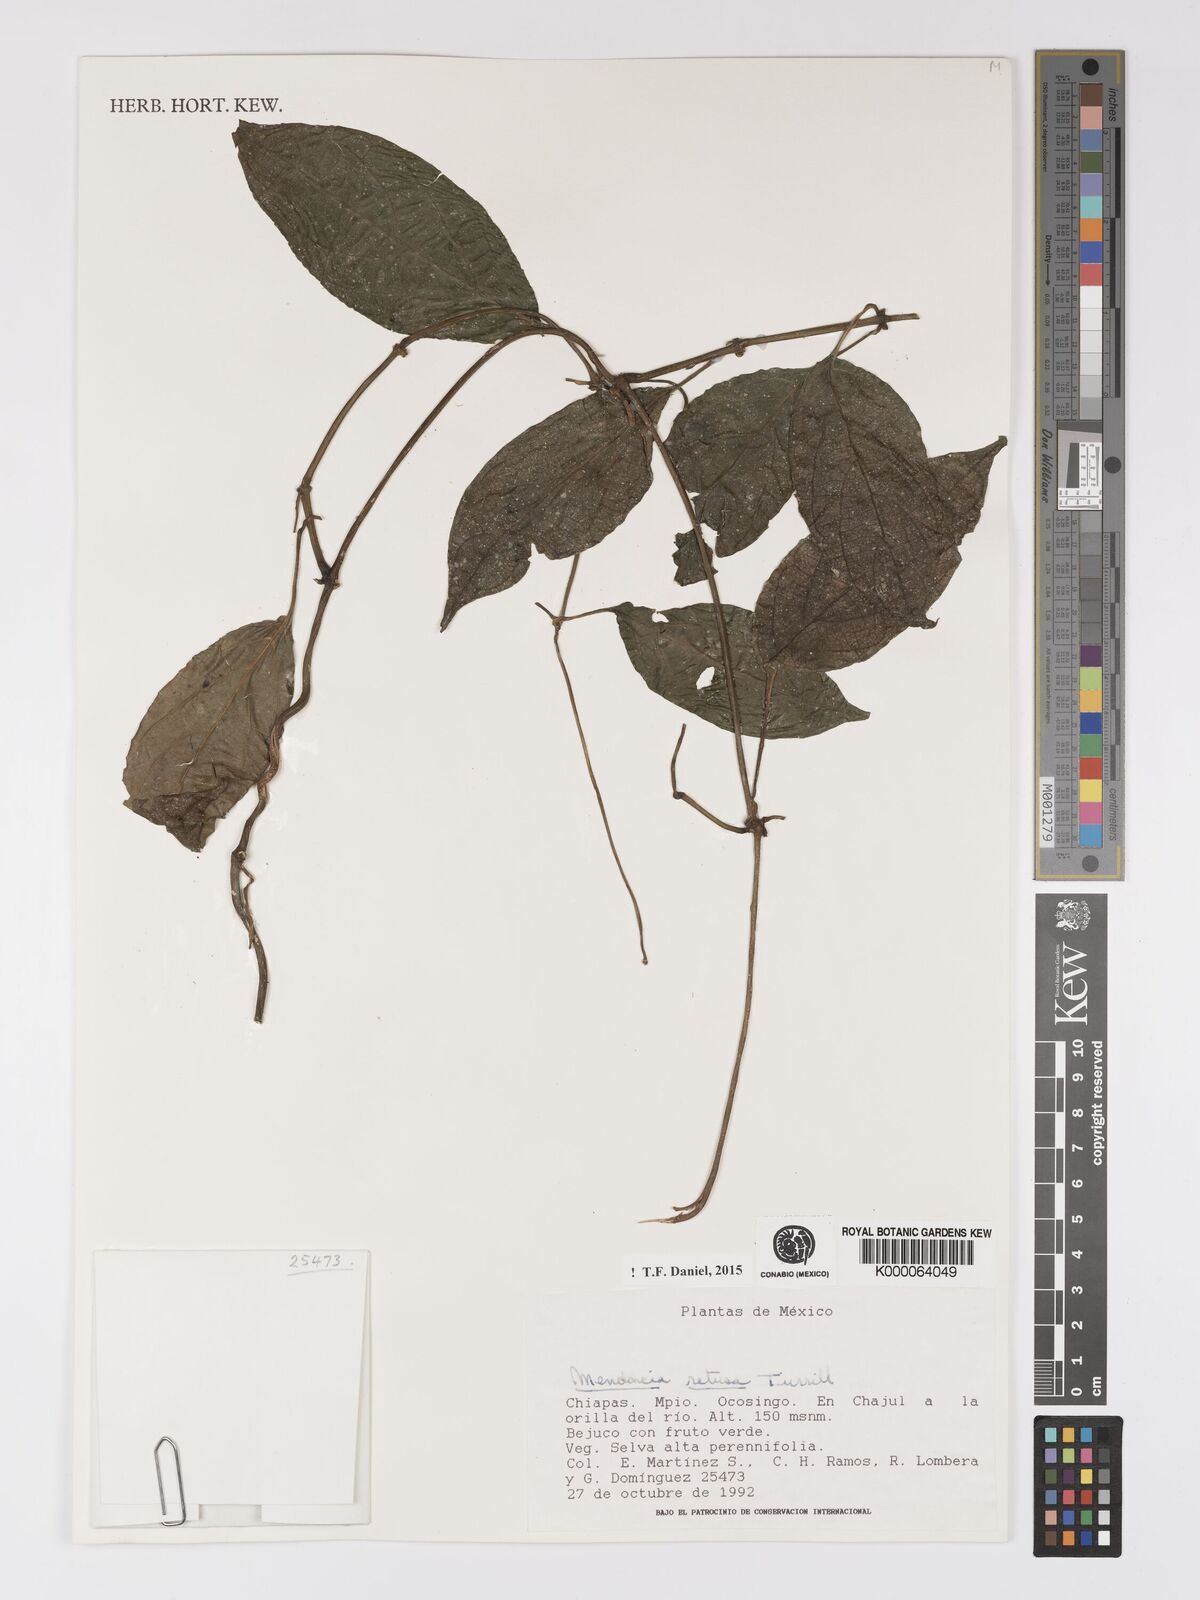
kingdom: Plantae
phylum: Tracheophyta
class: Magnoliopsida
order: Lamiales
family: Acanthaceae
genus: Mendoncia
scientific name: Mendoncia retusa
